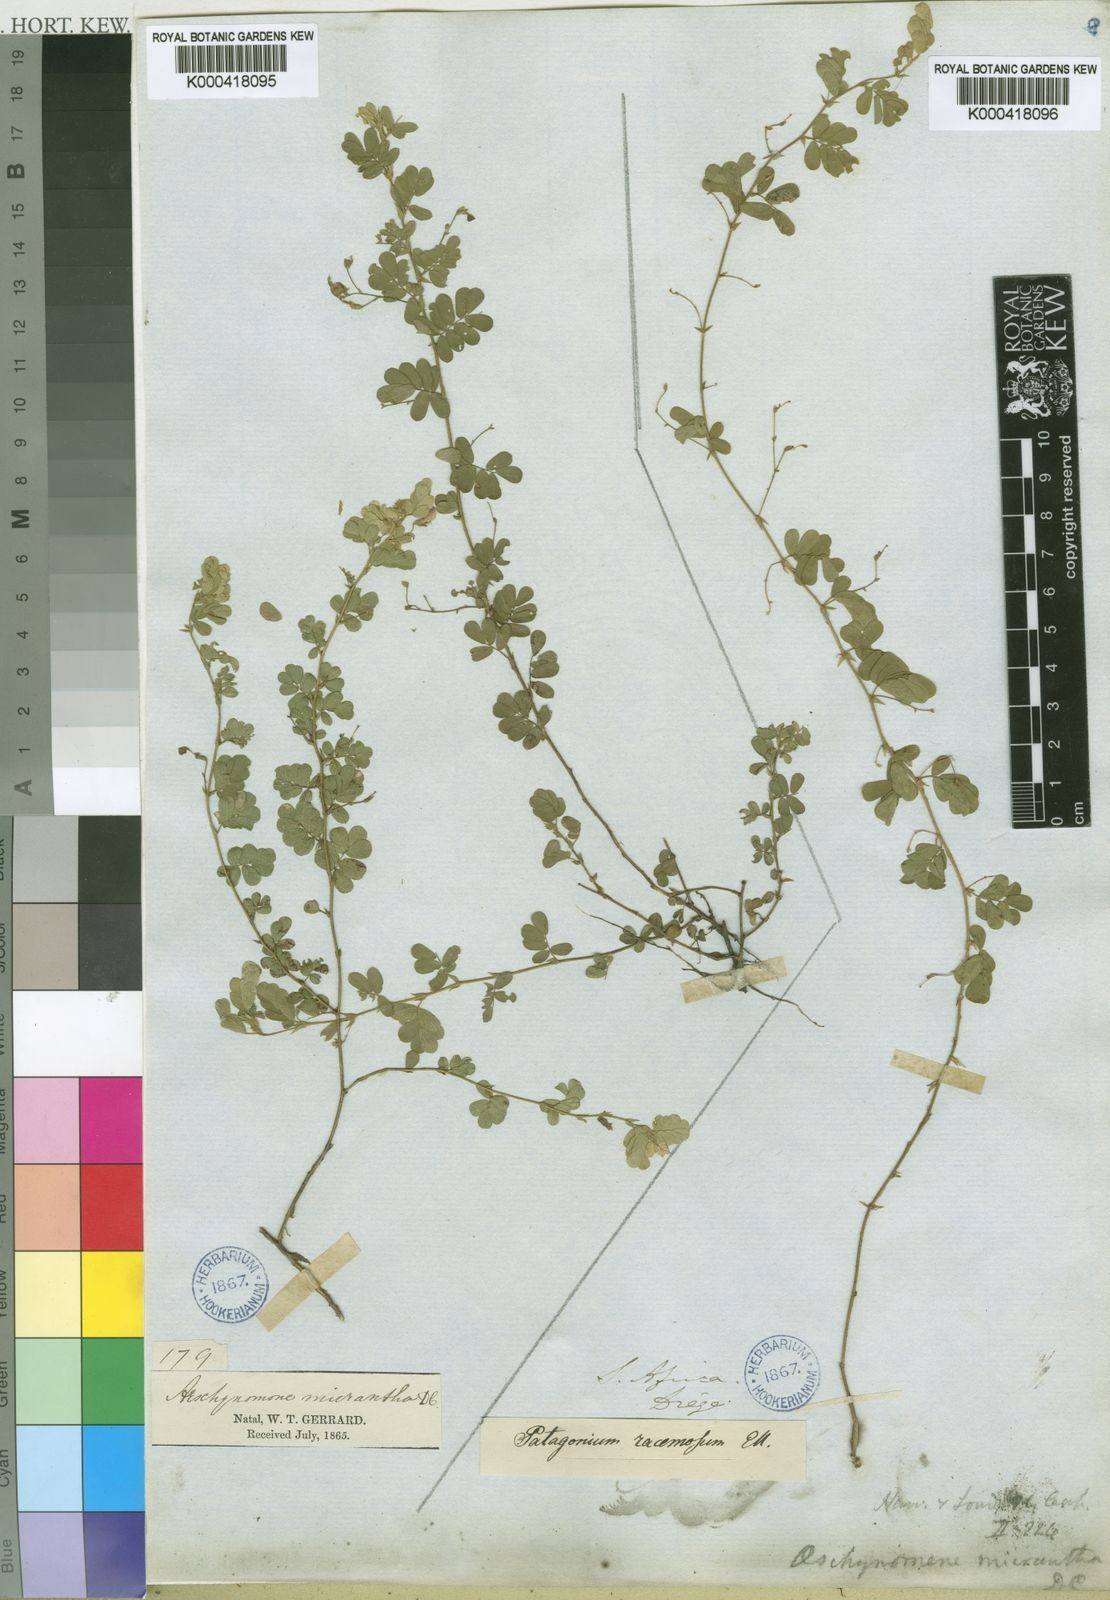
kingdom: Plantae
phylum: Tracheophyta
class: Magnoliopsida
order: Fabales
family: Fabaceae
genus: Aeschynomene
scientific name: Aeschynomene brevifolia
